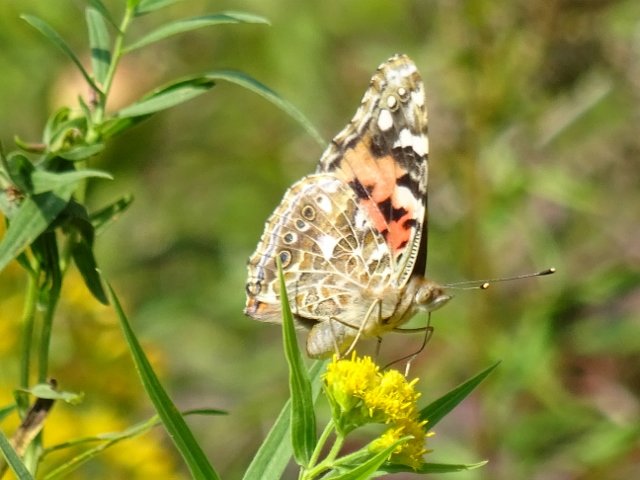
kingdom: Animalia
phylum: Arthropoda
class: Insecta
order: Lepidoptera
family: Nymphalidae
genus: Vanessa
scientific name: Vanessa cardui
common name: Painted Lady
